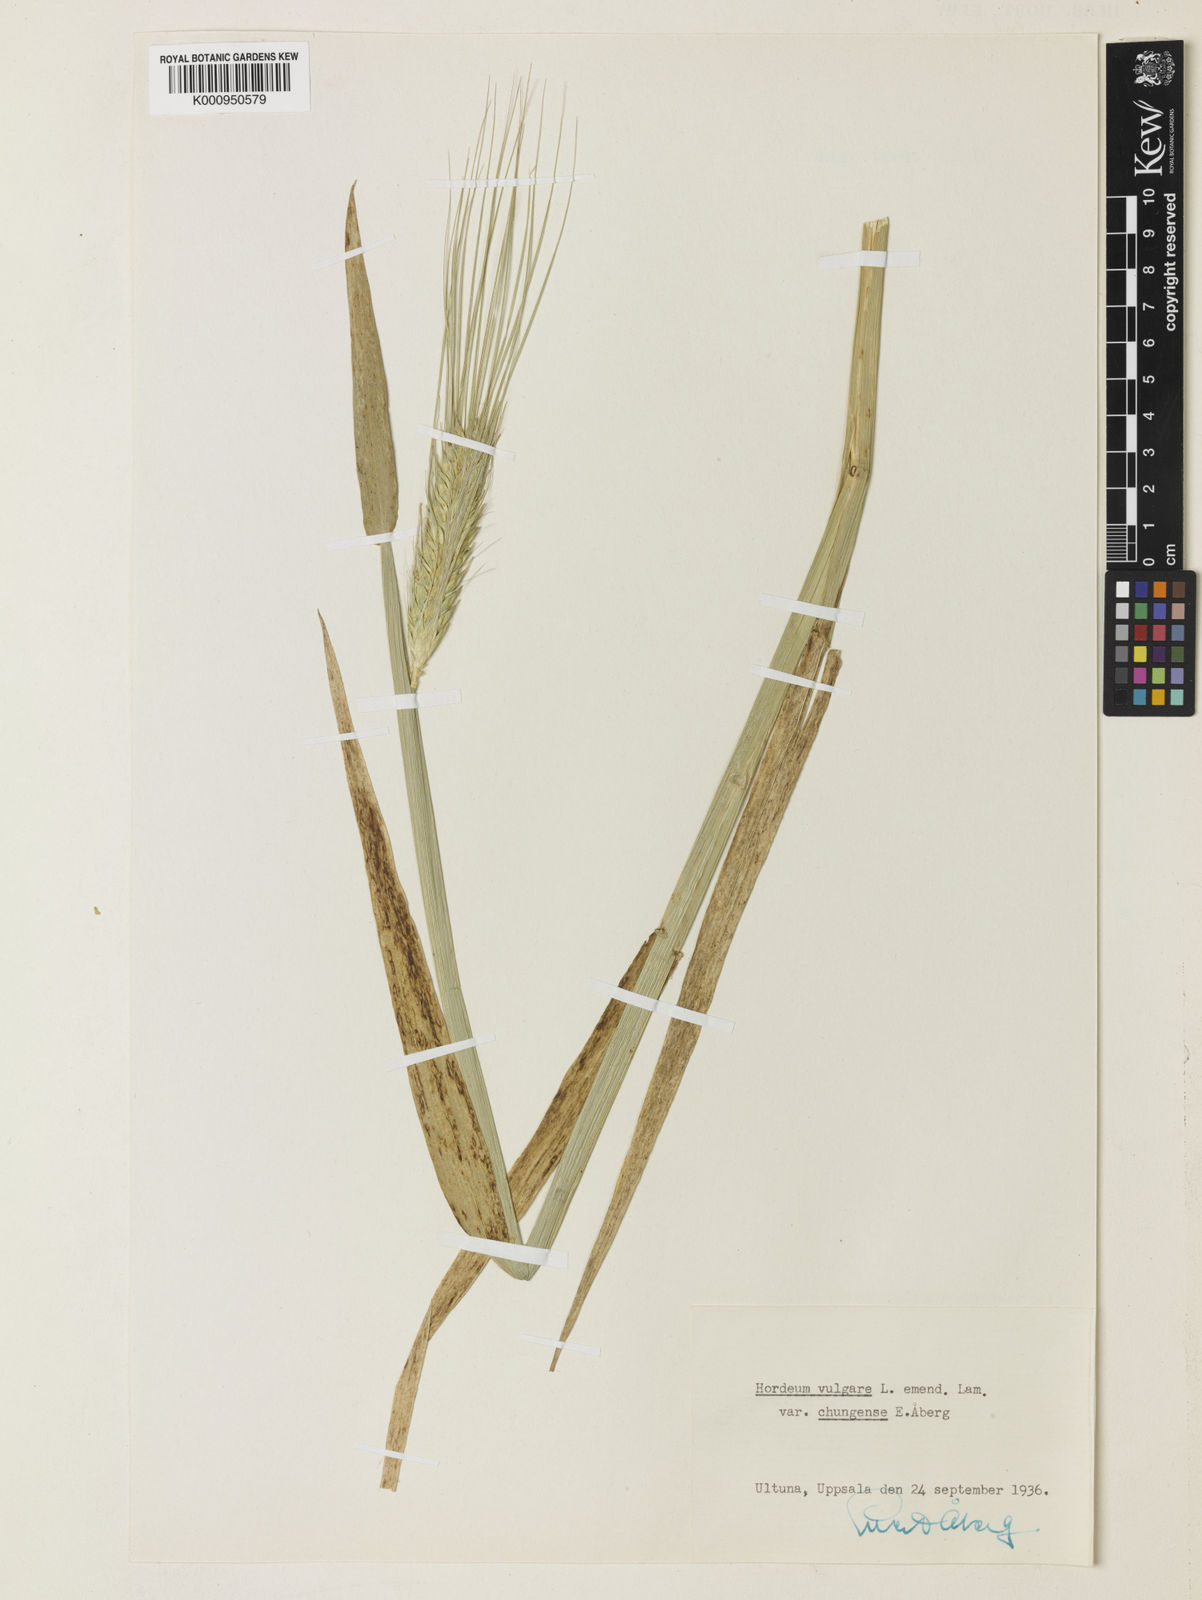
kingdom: Plantae
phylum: Tracheophyta
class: Liliopsida
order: Poales
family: Poaceae
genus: Hordeum
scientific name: Hordeum vulgare
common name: Common barley
